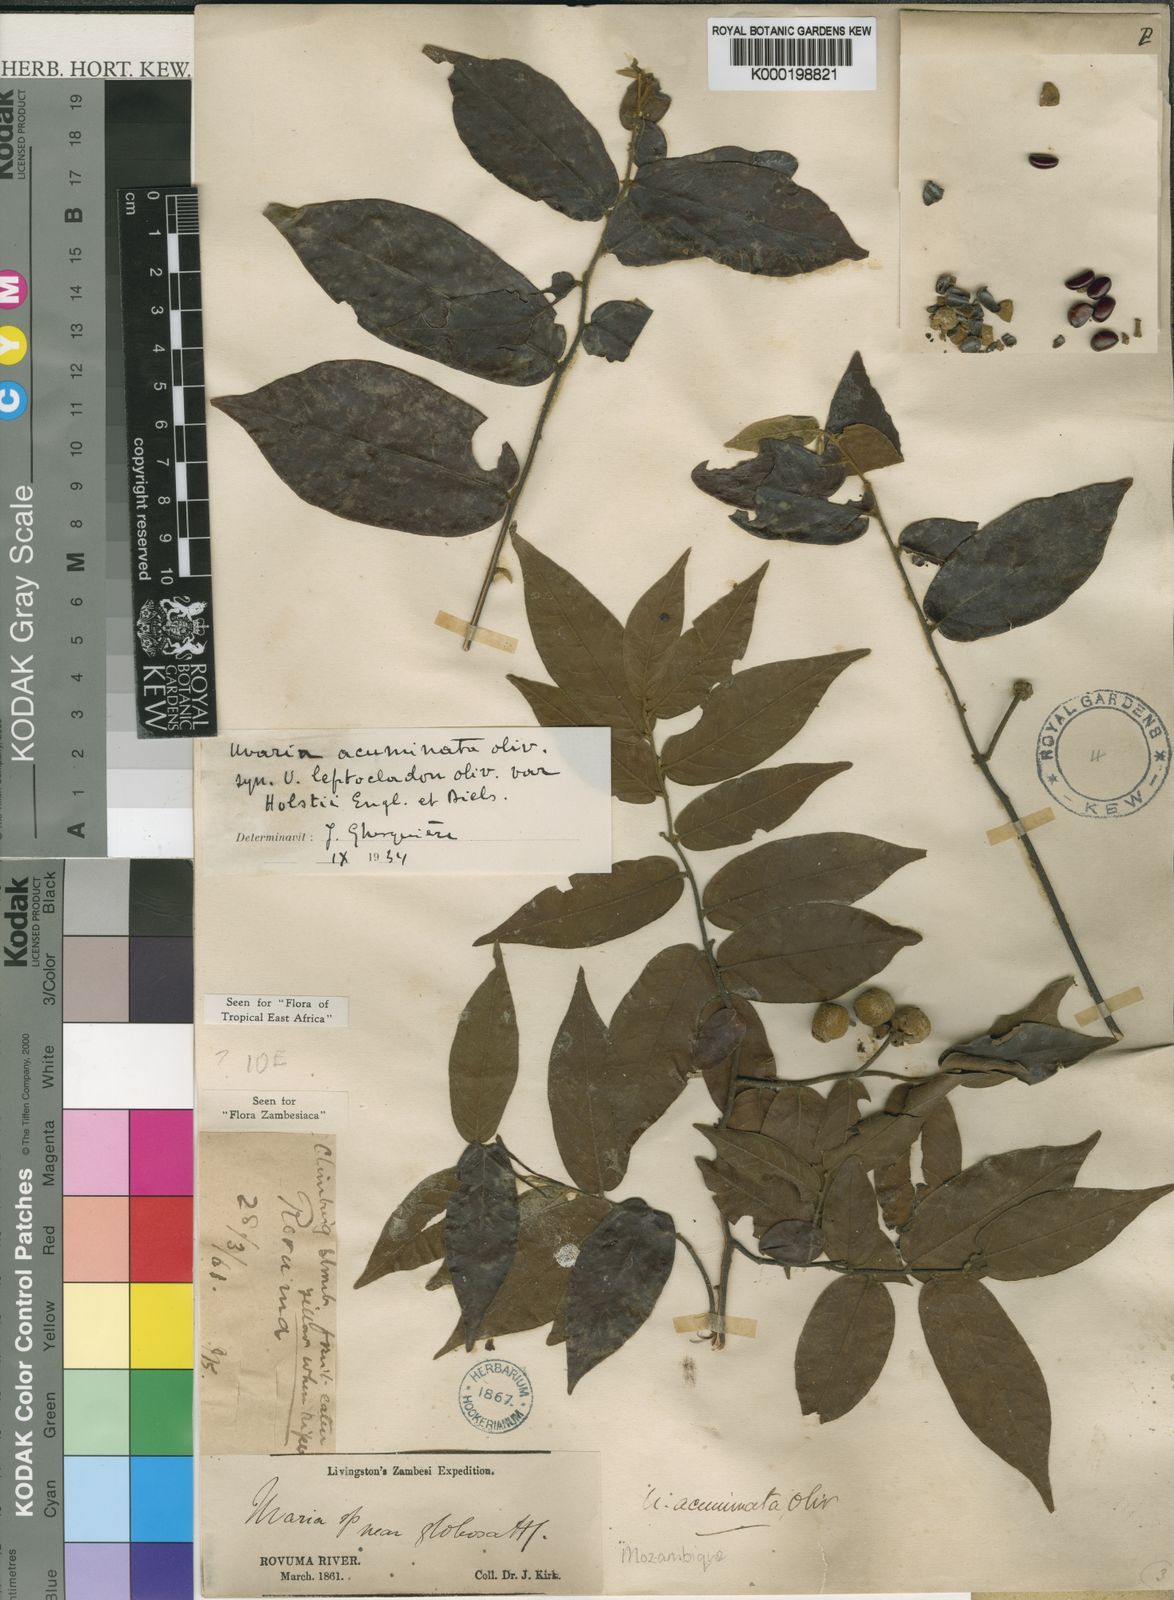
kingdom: Plantae
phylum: Tracheophyta
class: Magnoliopsida
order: Magnoliales
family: Annonaceae
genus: Uvaria
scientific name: Uvaria acuminata
